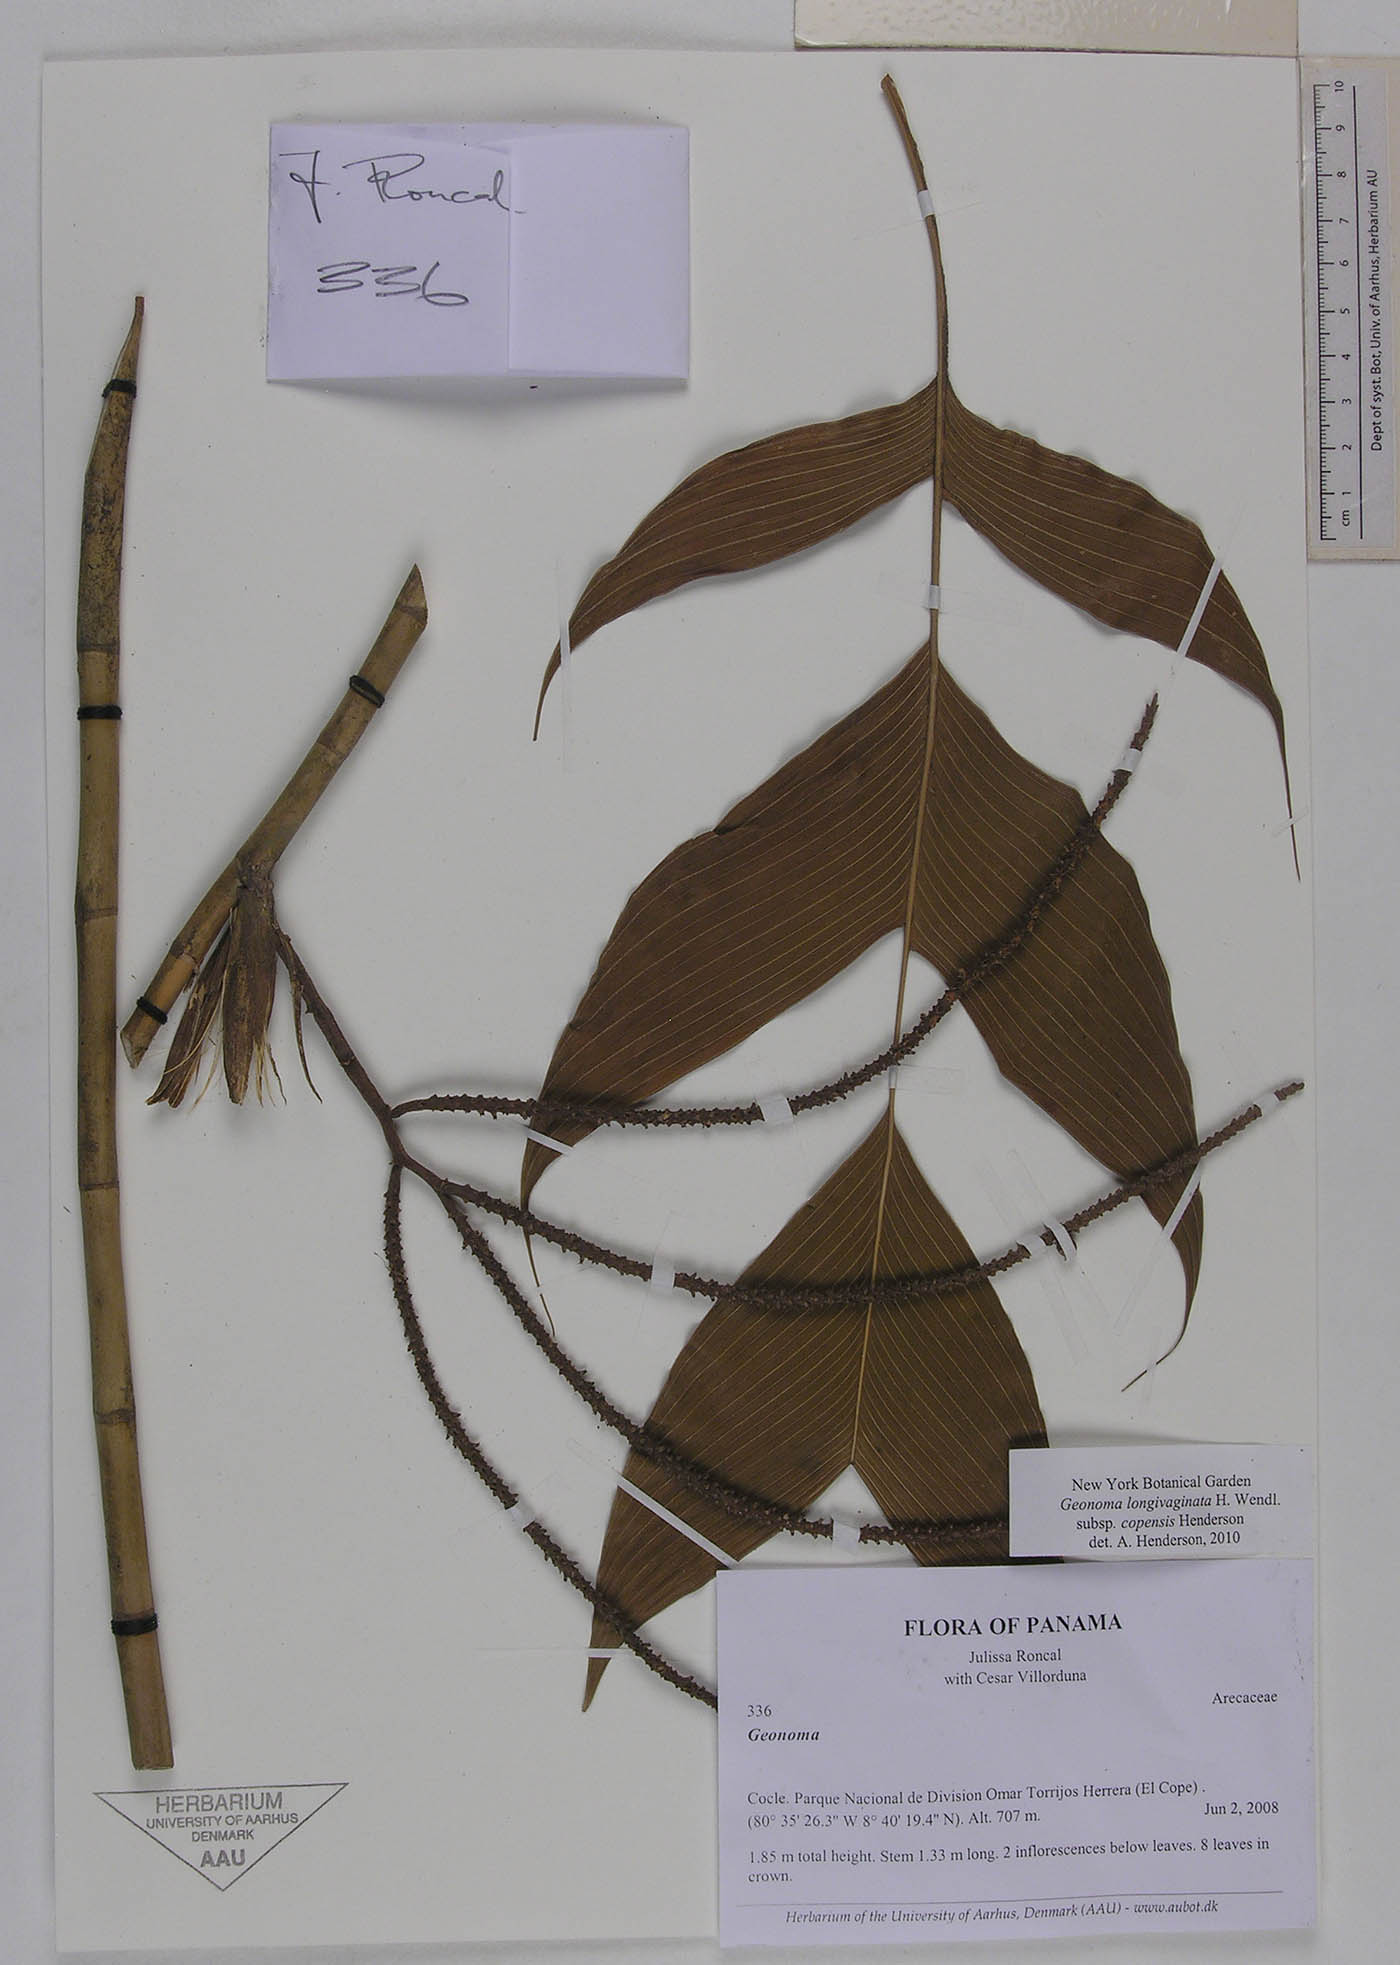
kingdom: Plantae
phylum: Tracheophyta
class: Liliopsida
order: Arecales
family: Arecaceae
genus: Geonoma
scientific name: Geonoma longivaginata
